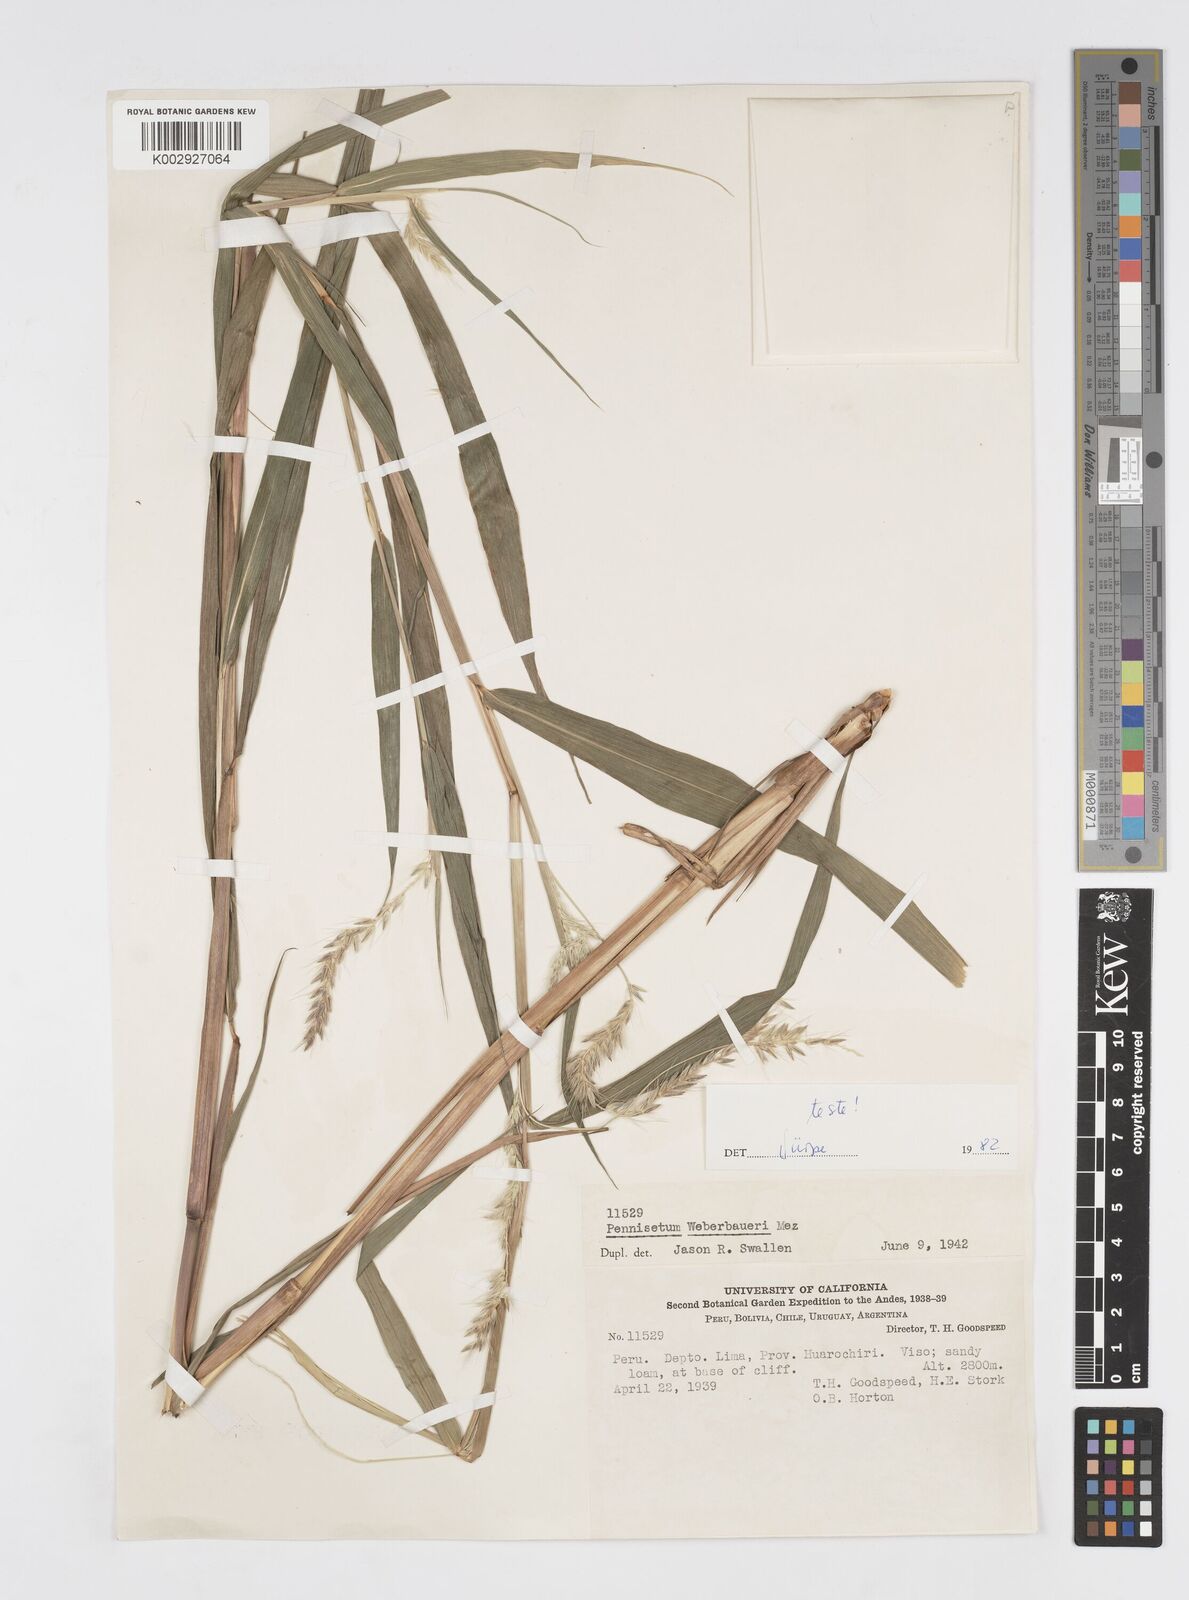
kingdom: Plantae
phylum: Tracheophyta
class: Liliopsida
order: Poales
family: Poaceae
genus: Cenchrus
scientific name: Cenchrus weberbaueri
